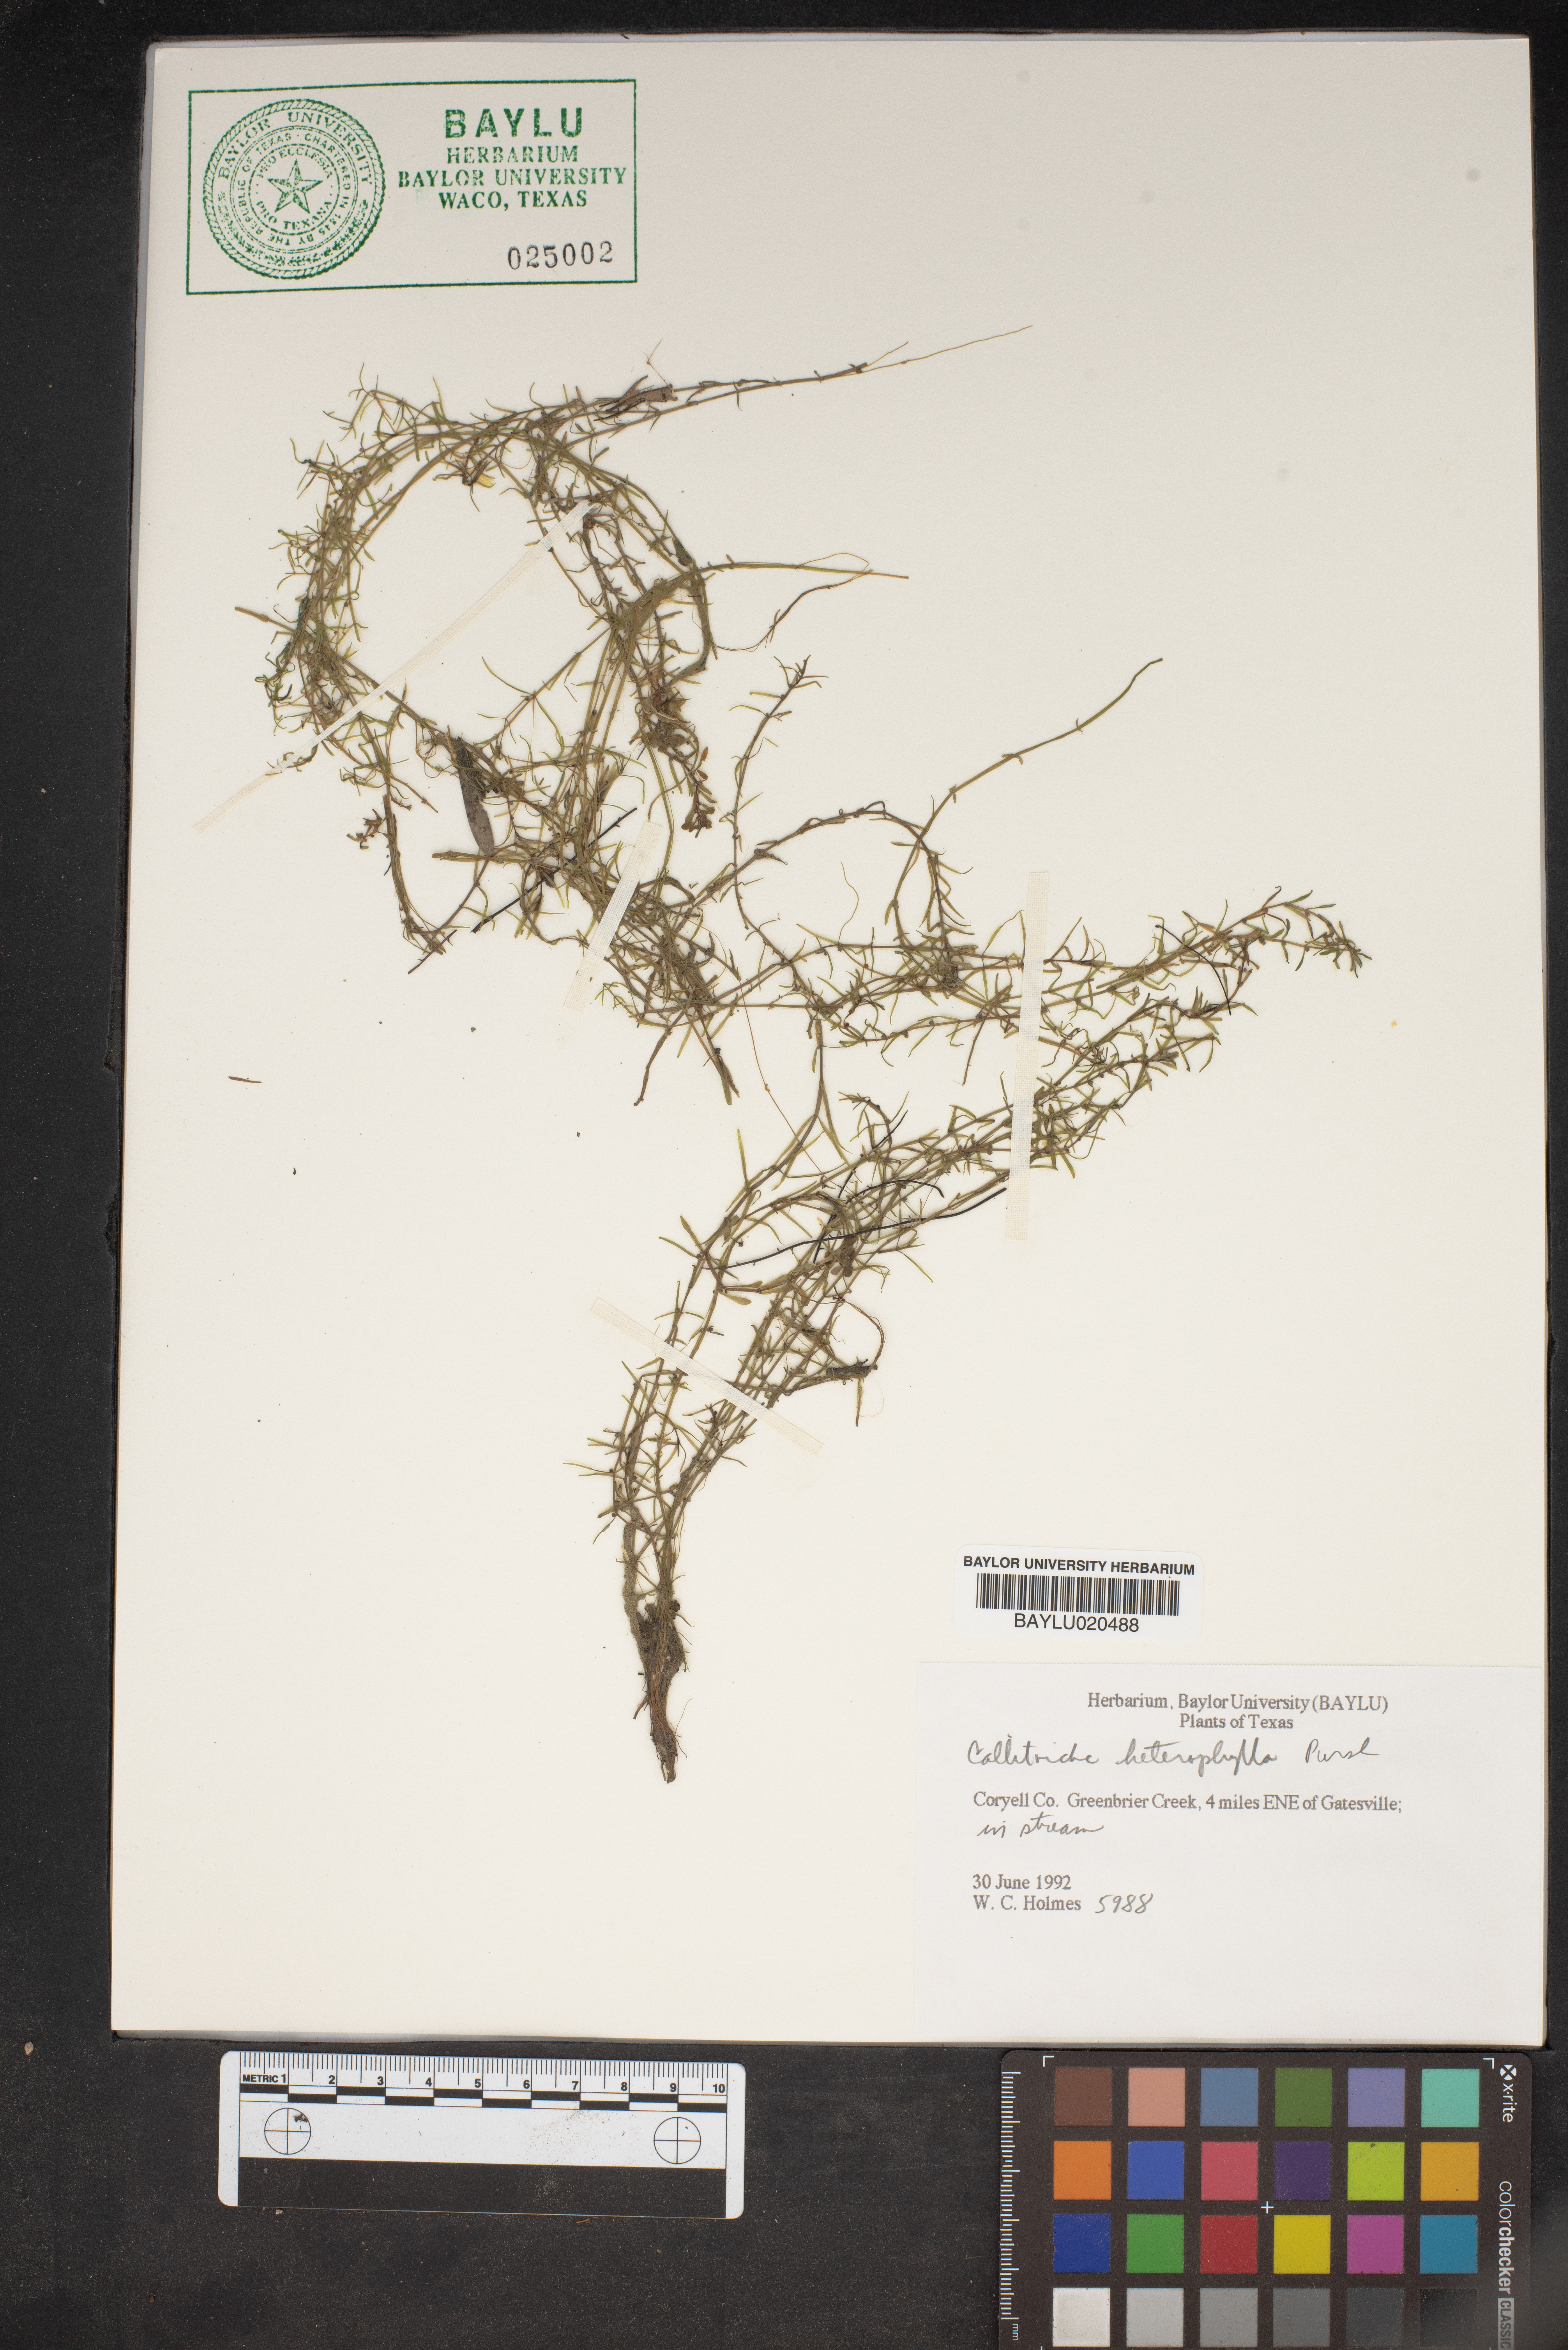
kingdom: Plantae
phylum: Tracheophyta
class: Magnoliopsida
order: Lamiales
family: Plantaginaceae
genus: Callitriche
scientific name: Callitriche heterophylla
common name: Two-headed water-starwort
